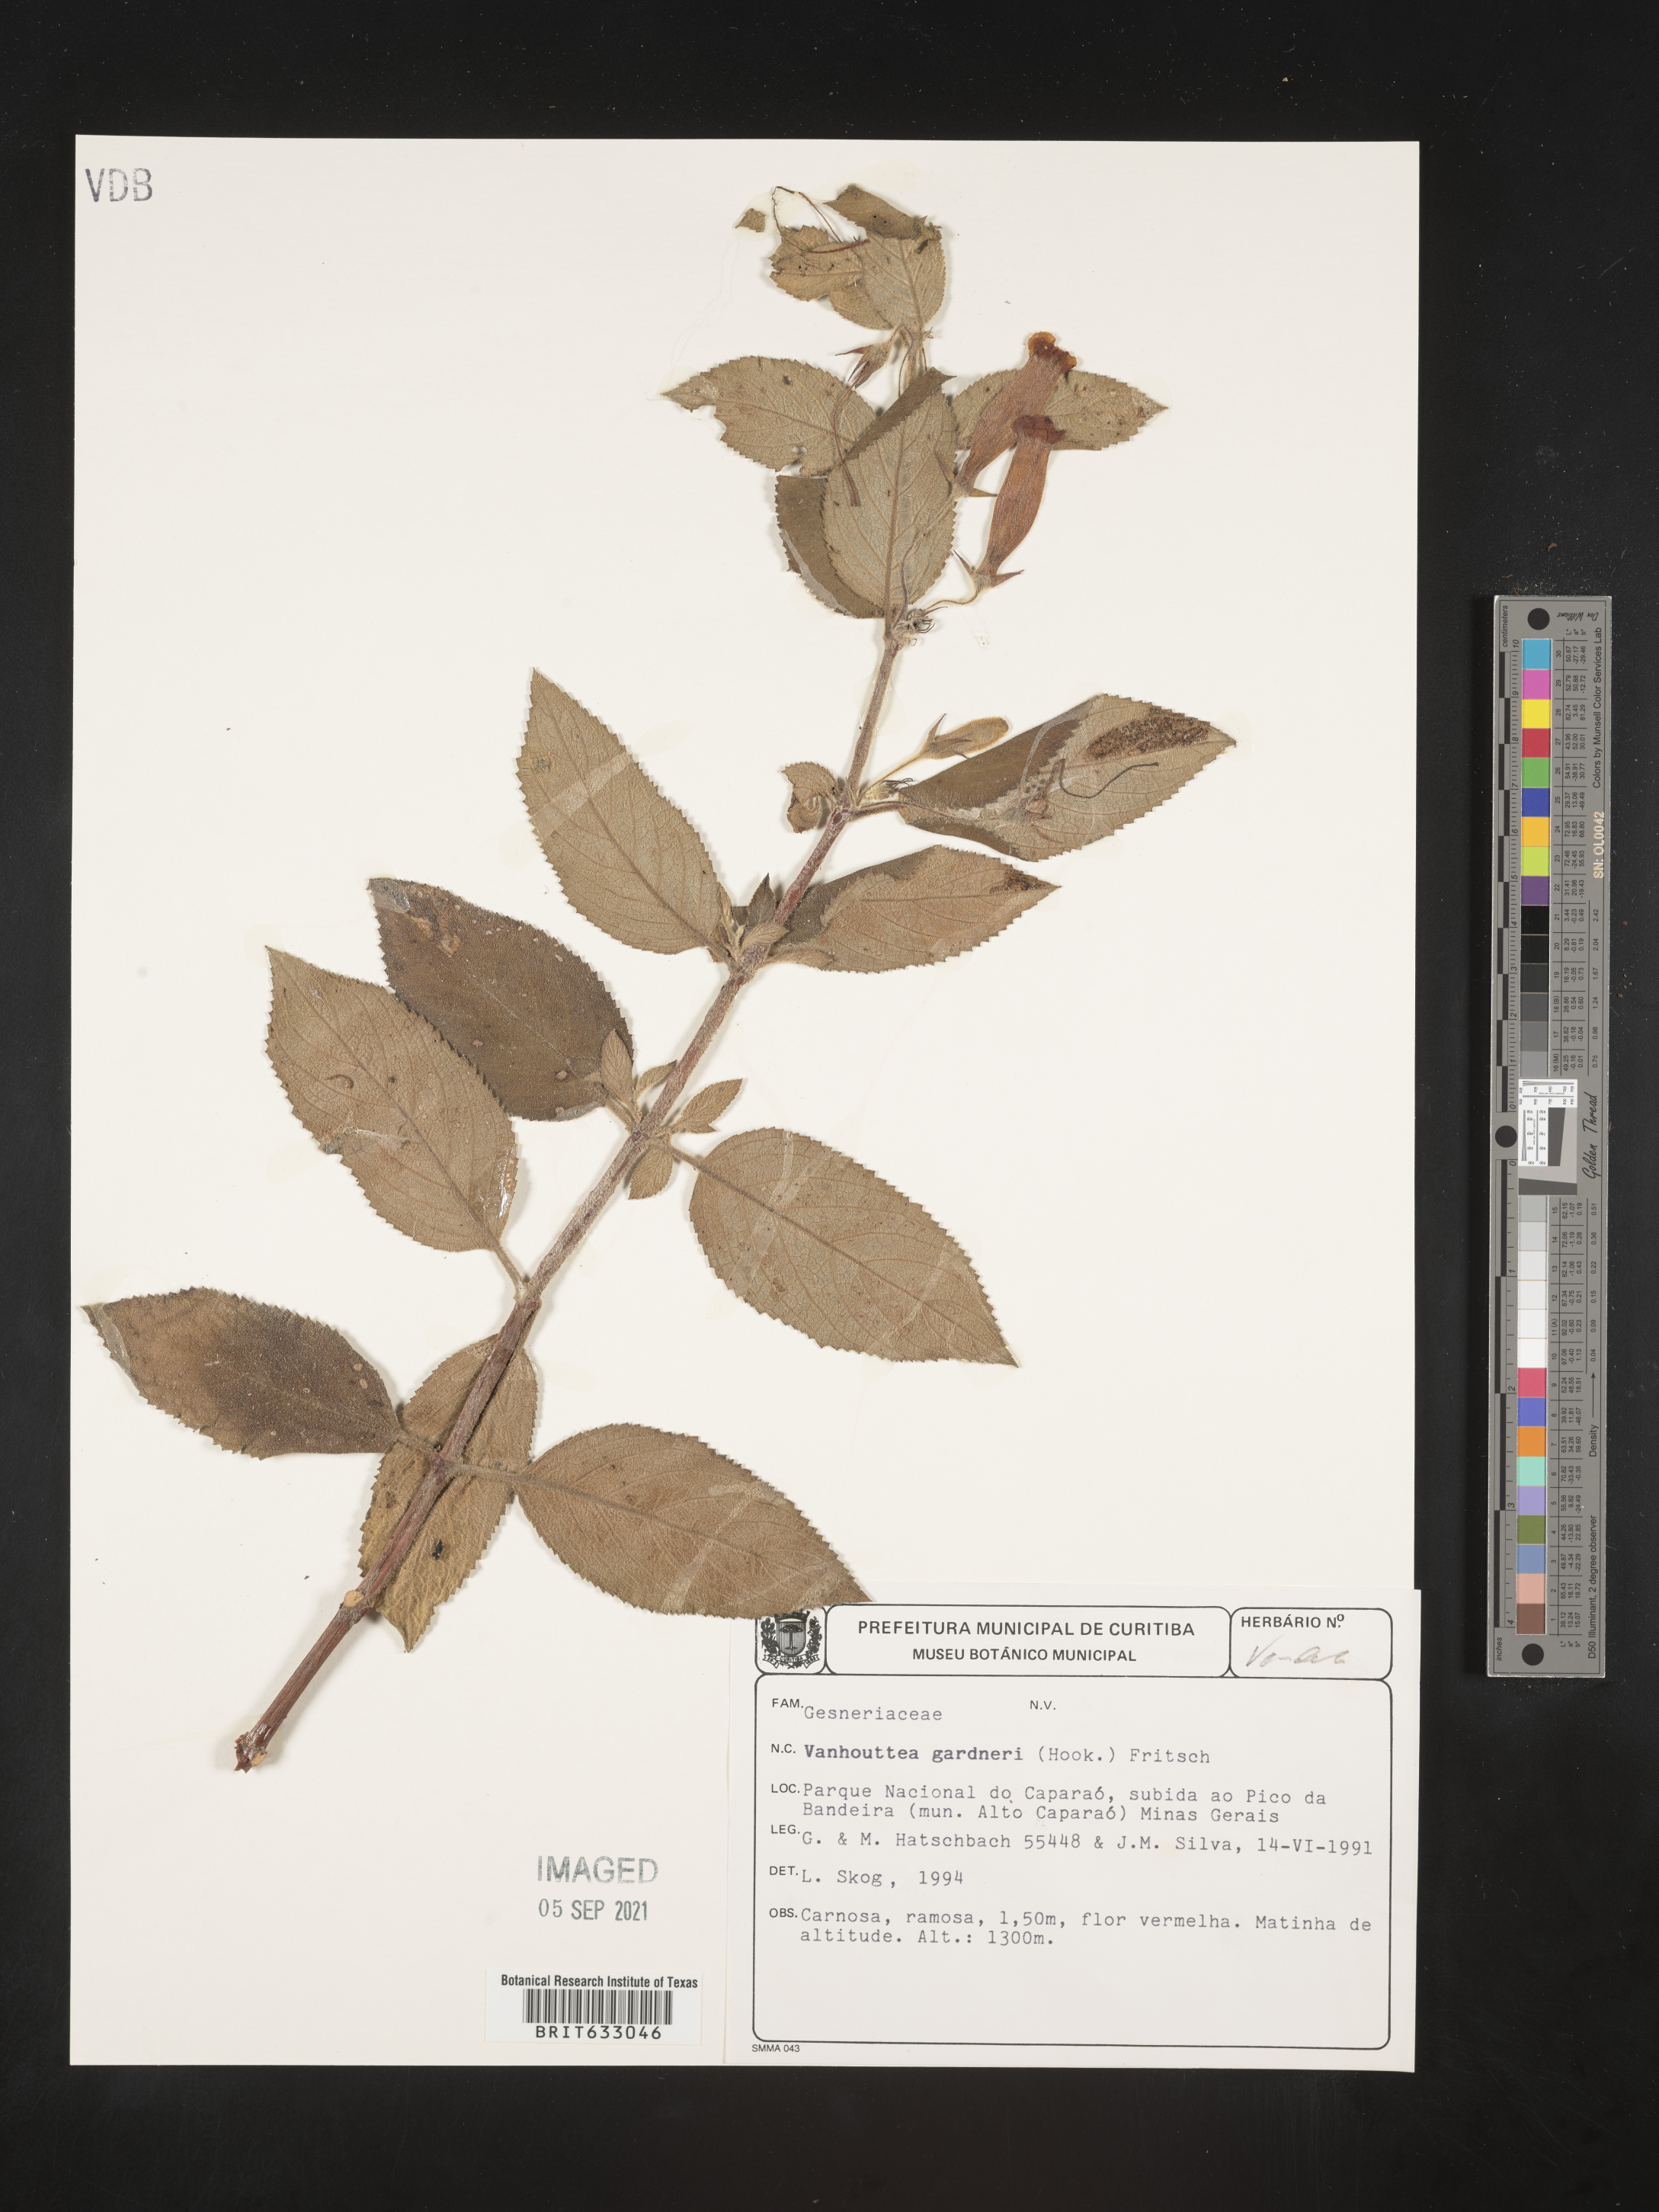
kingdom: Plantae
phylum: Tracheophyta
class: Magnoliopsida
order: Lamiales
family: Gesneriaceae
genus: Vanhouttea
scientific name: Vanhouttea
